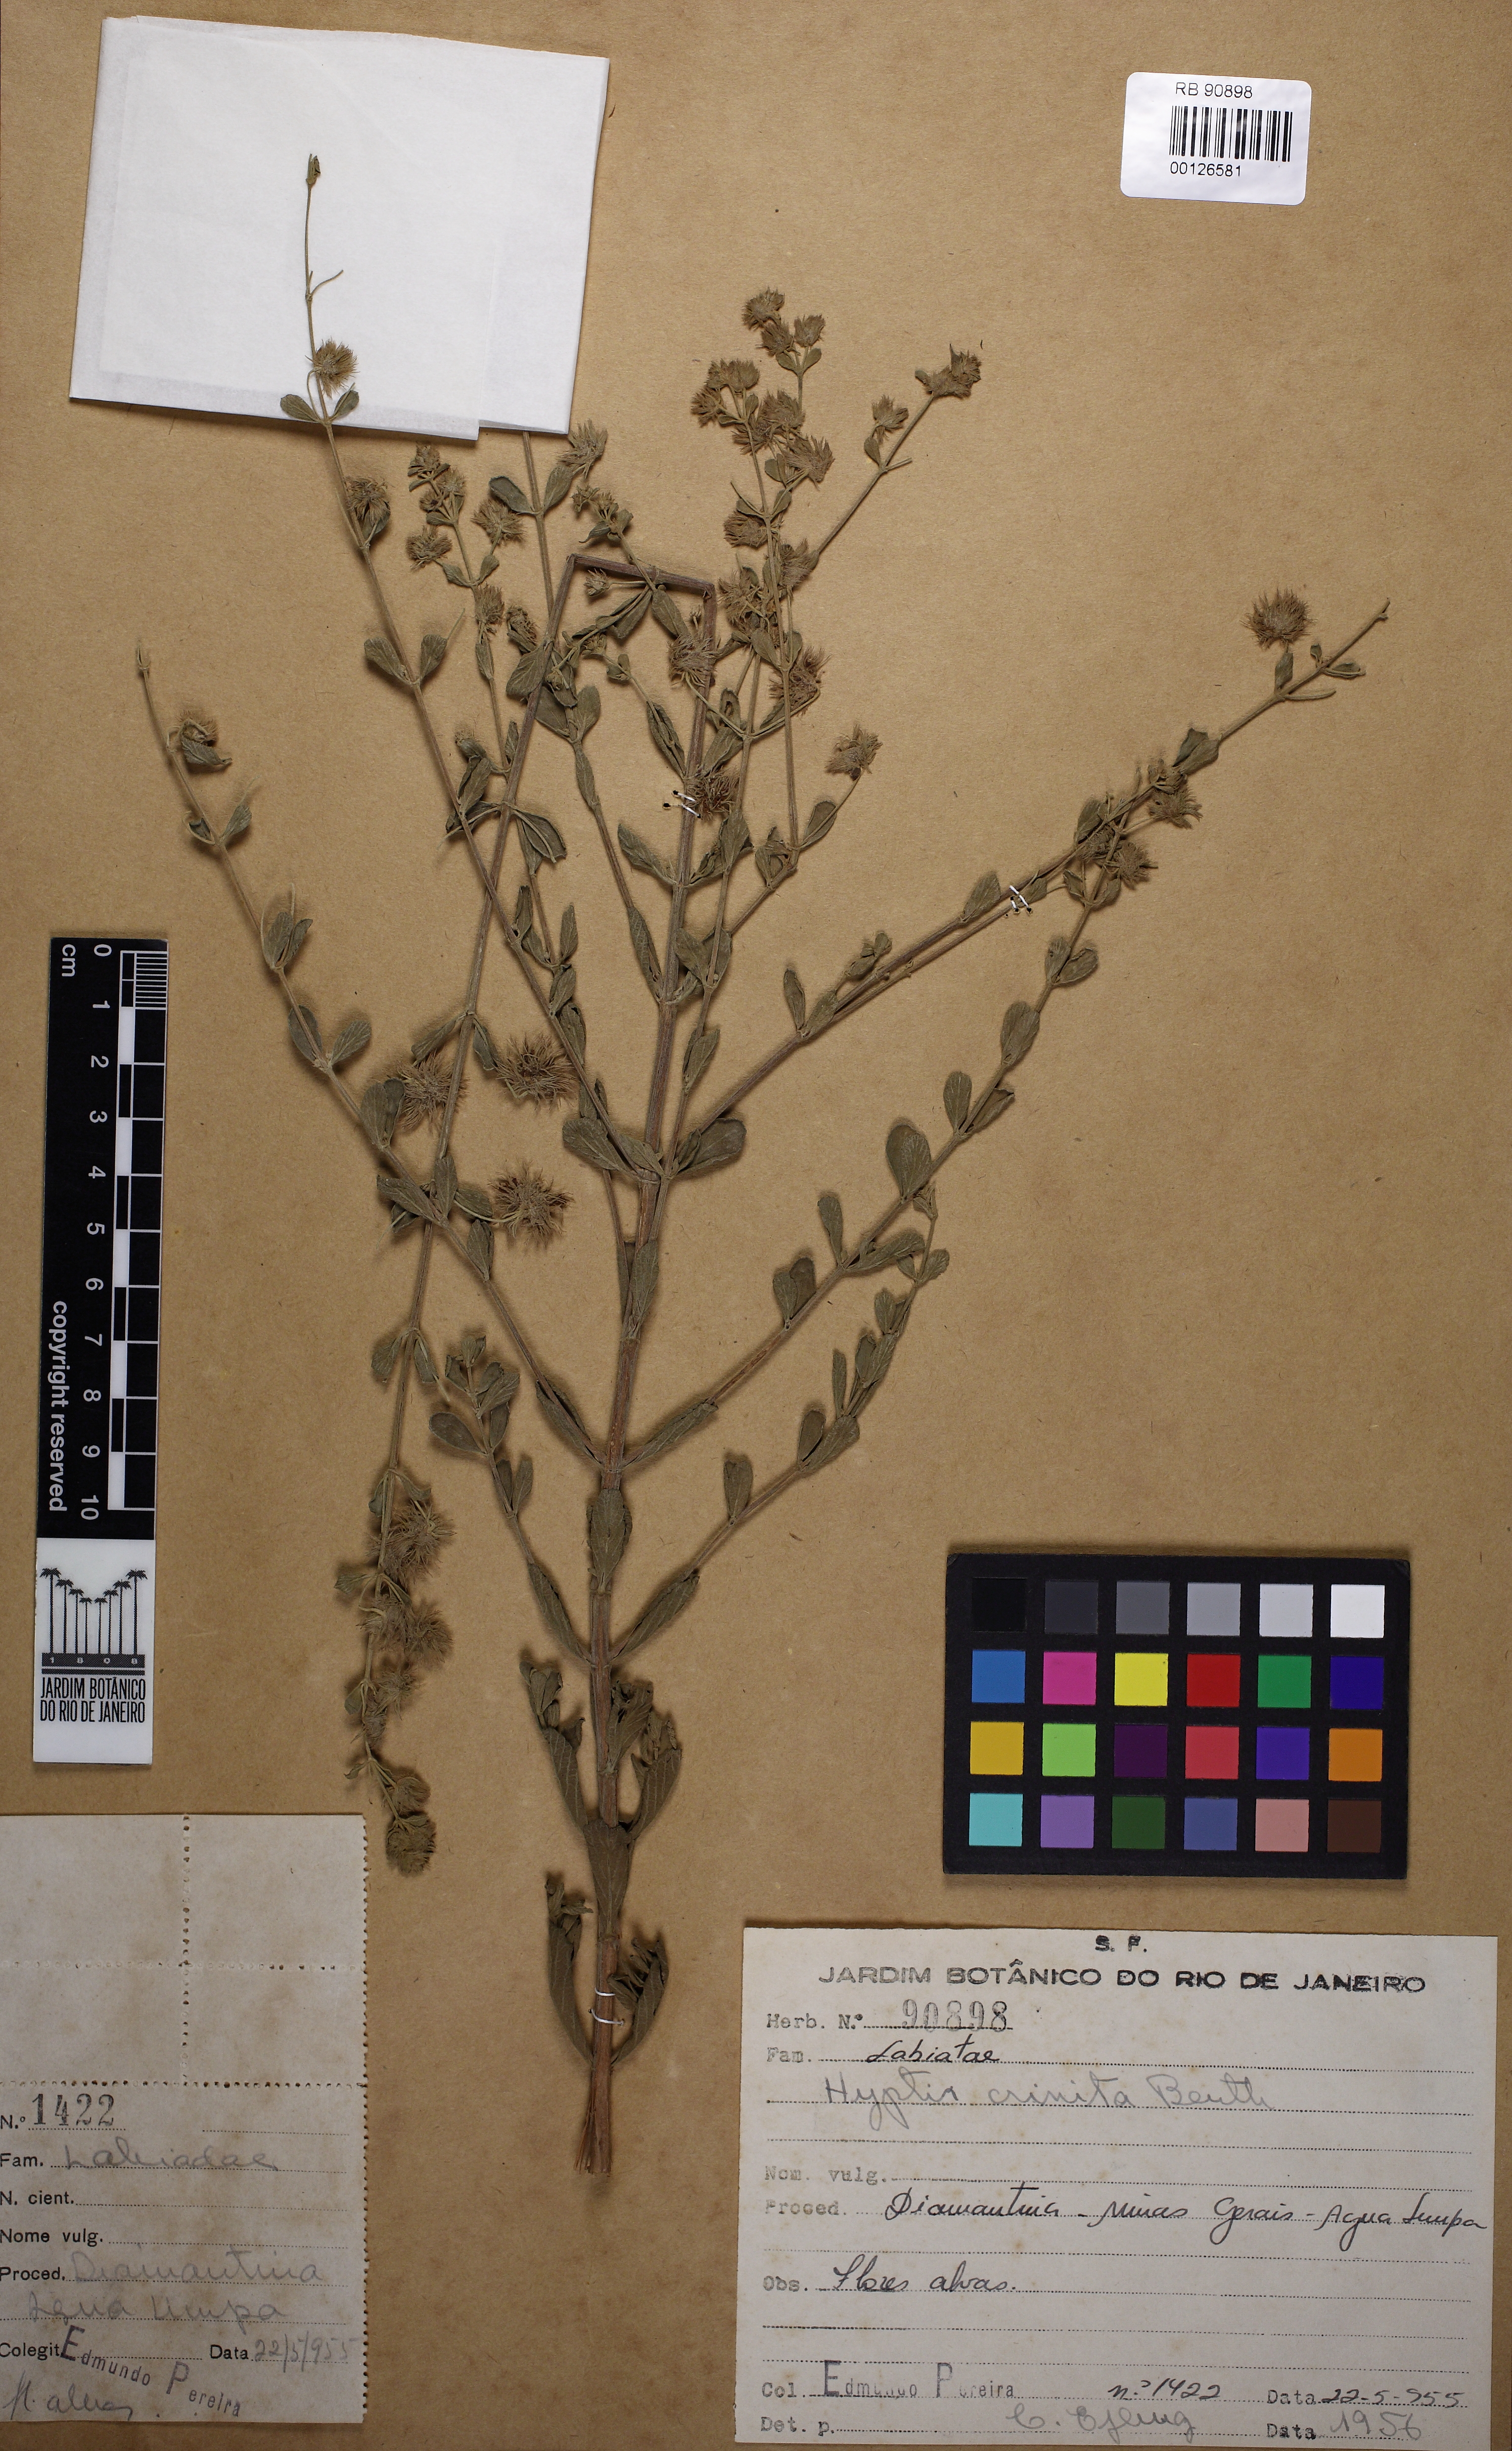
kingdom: Plantae
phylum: Tracheophyta
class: Magnoliopsida
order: Lamiales
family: Lamiaceae
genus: Medusantha
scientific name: Medusantha crinita
